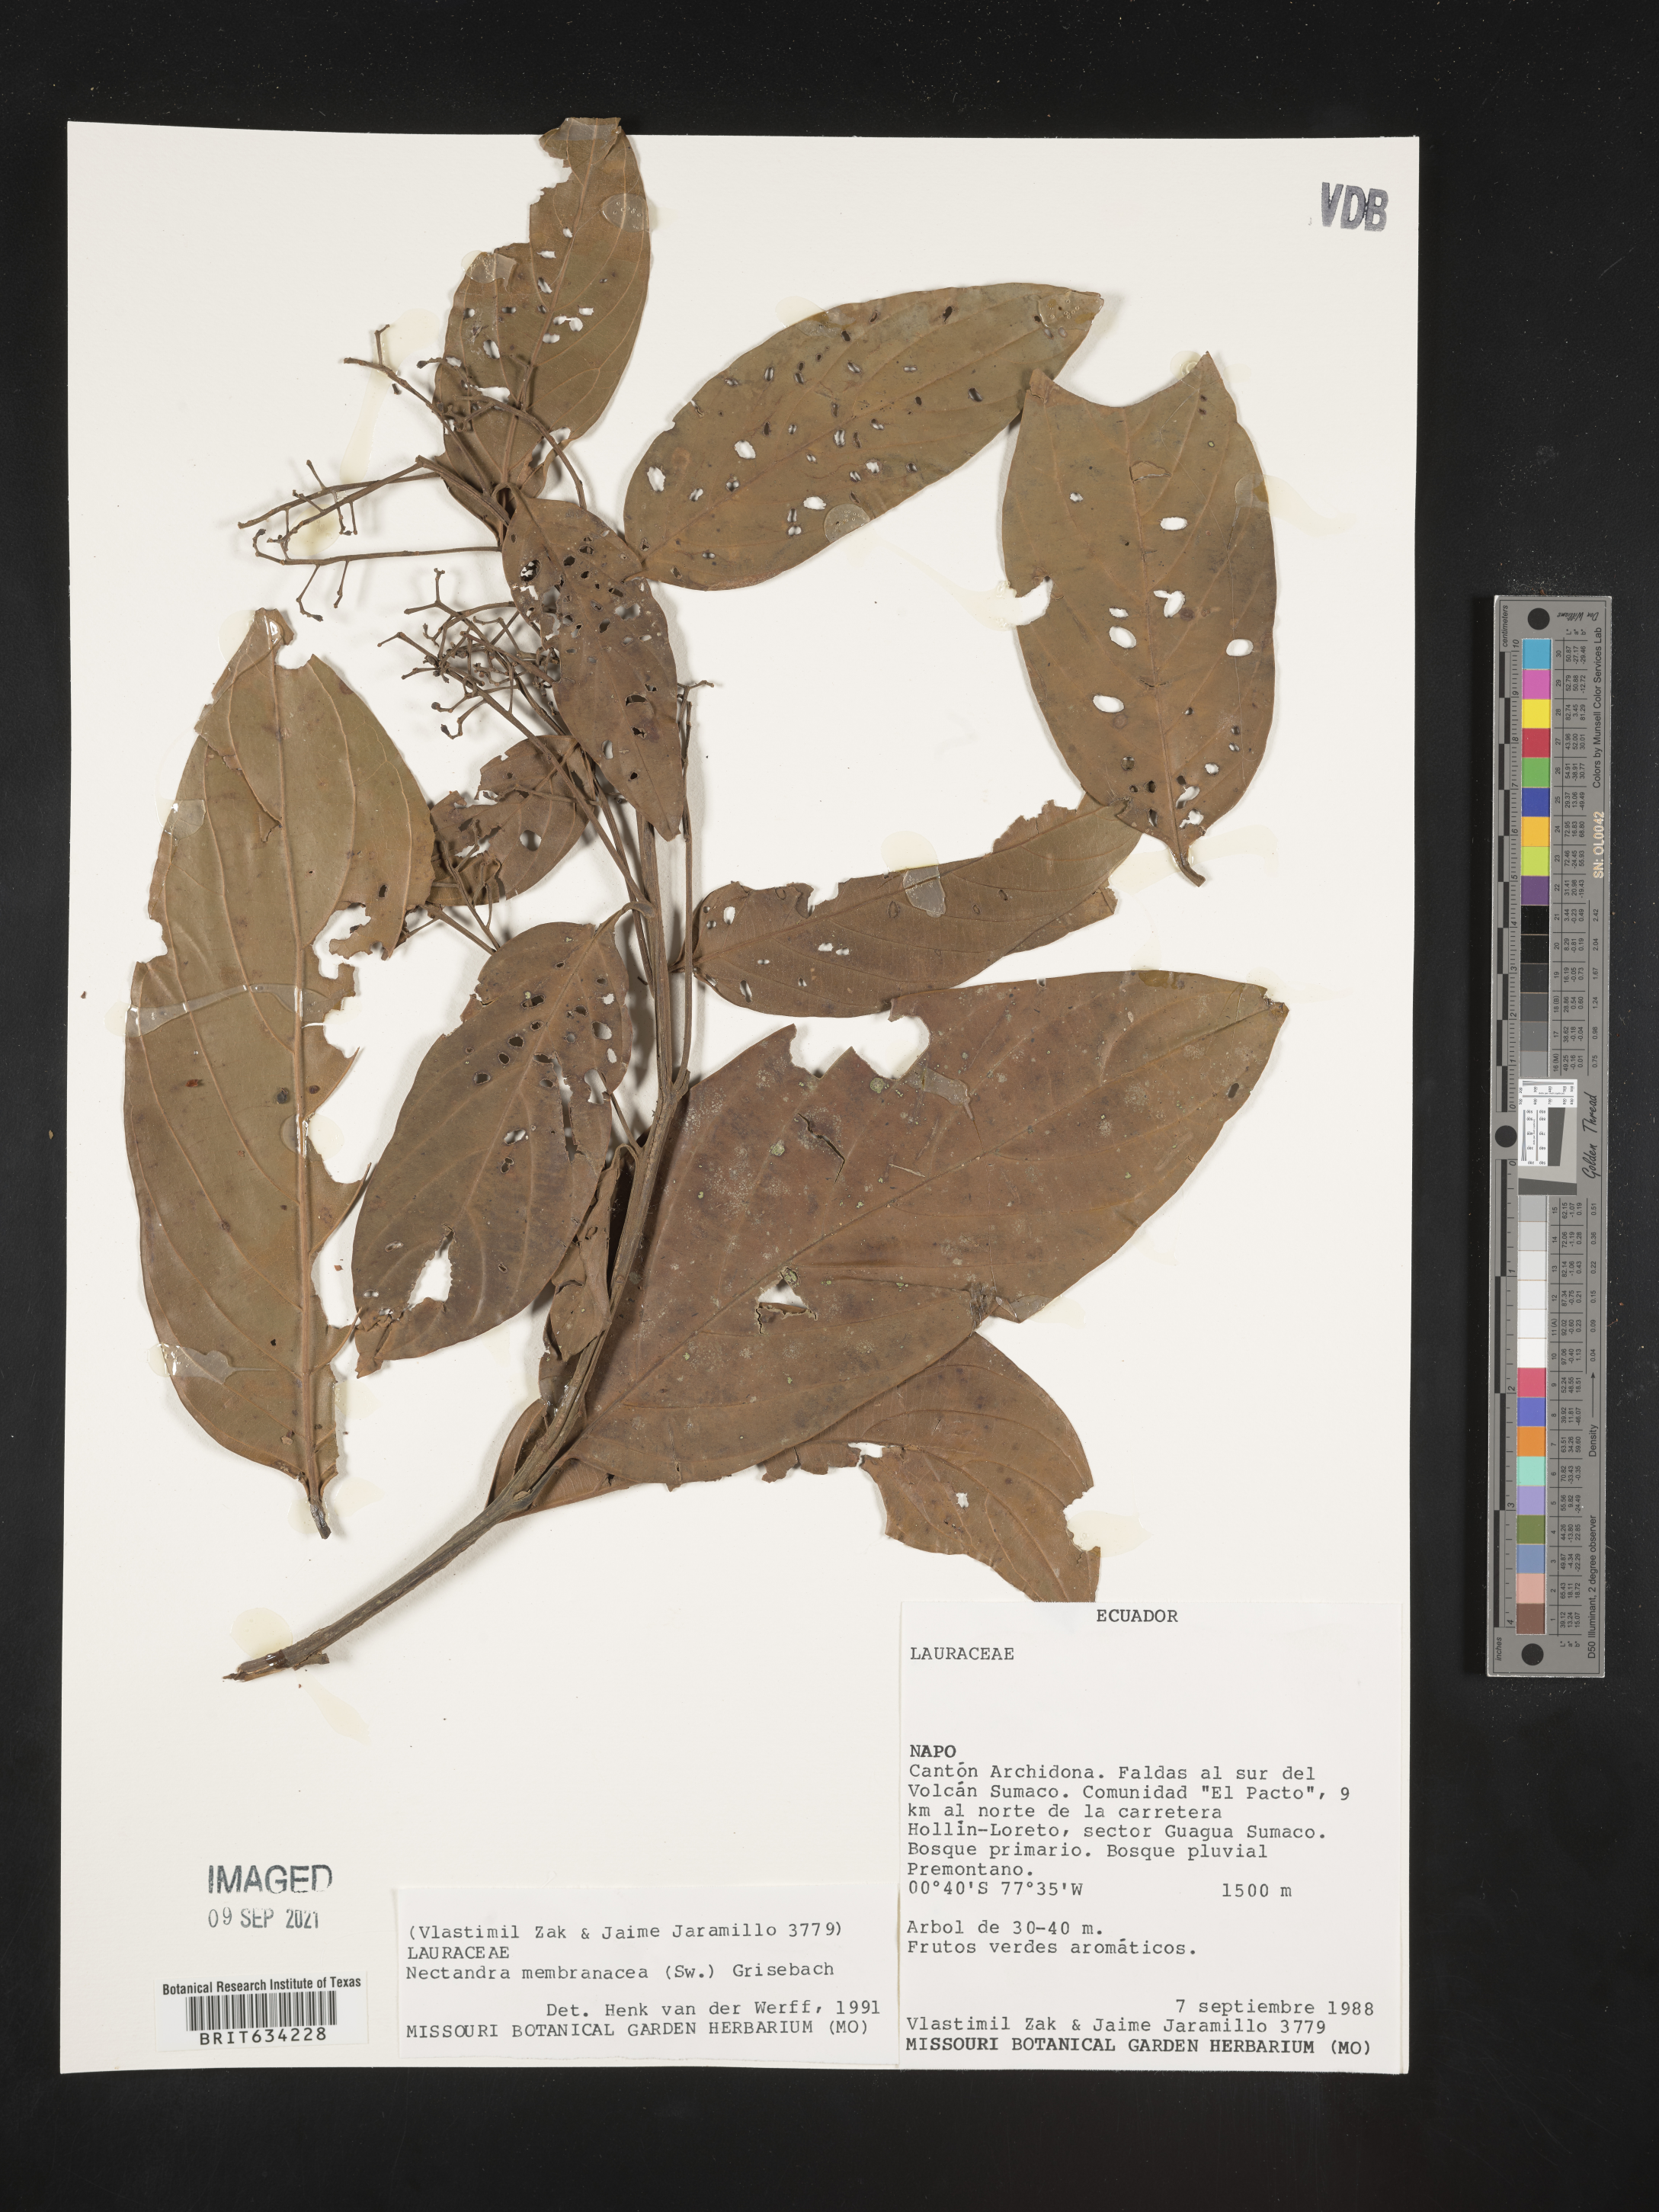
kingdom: Plantae
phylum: Tracheophyta
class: Magnoliopsida
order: Laurales
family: Lauraceae
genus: Nectandra
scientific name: Nectandra
